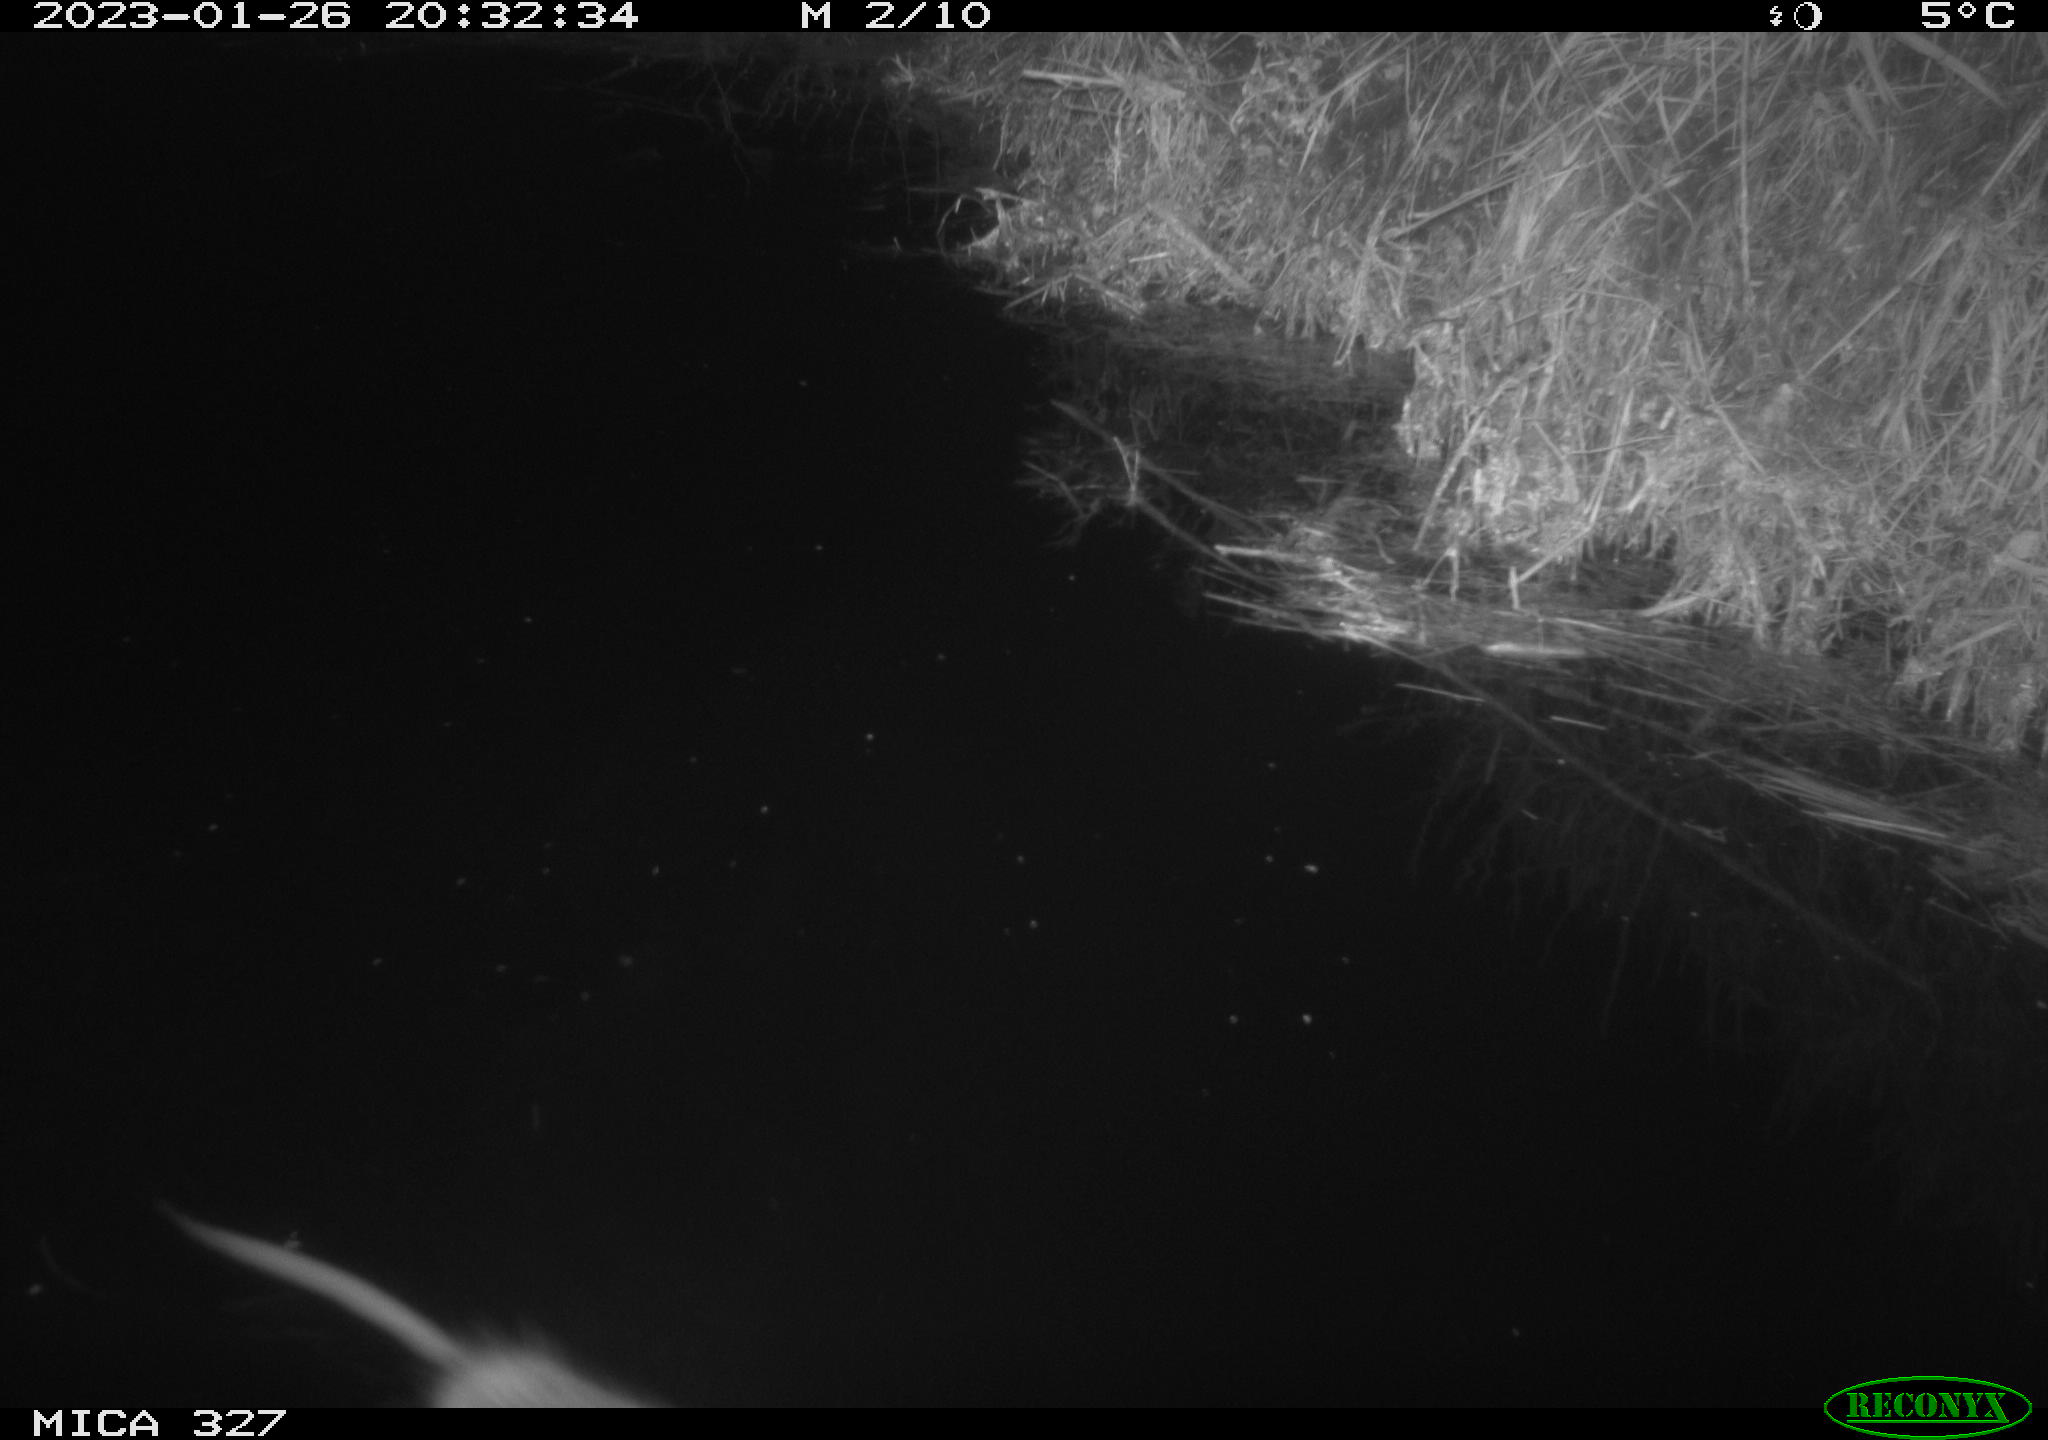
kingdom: Animalia
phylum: Chordata
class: Mammalia
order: Rodentia
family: Cricetidae
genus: Ondatra
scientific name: Ondatra zibethicus
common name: Muskrat
